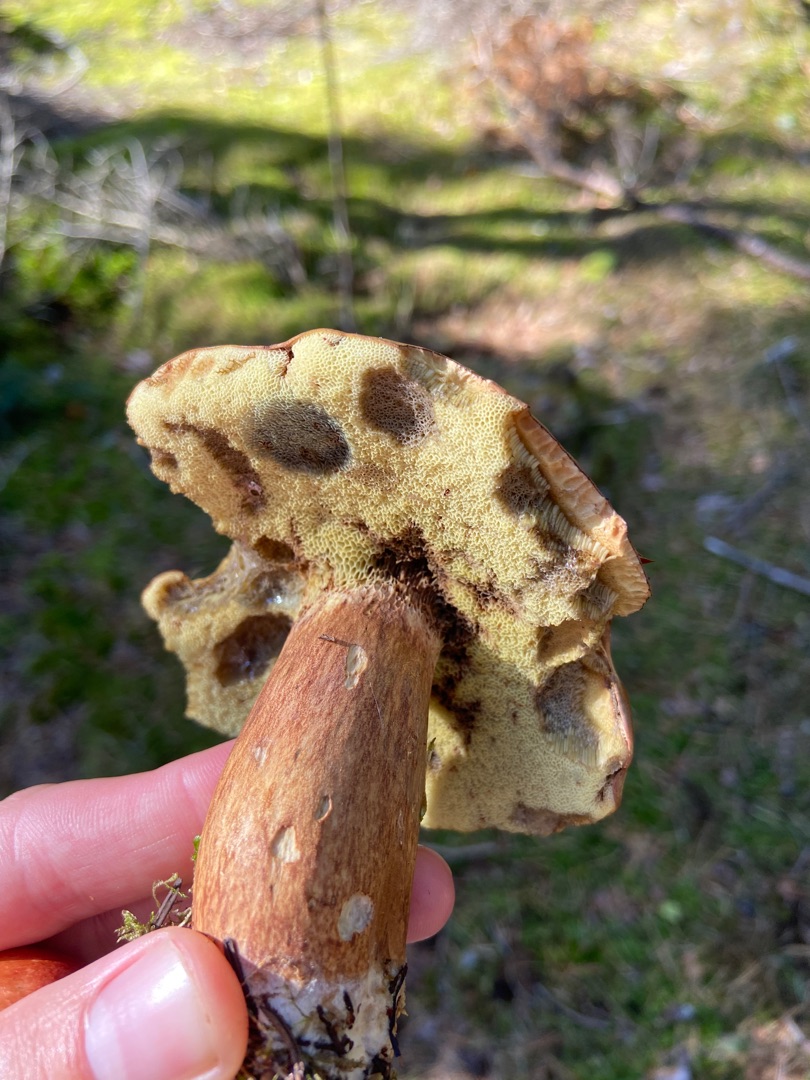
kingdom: Fungi
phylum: Basidiomycota
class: Agaricomycetes
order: Boletales
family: Boletaceae
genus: Imleria
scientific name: Imleria badia
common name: Brunstokket rørhat
